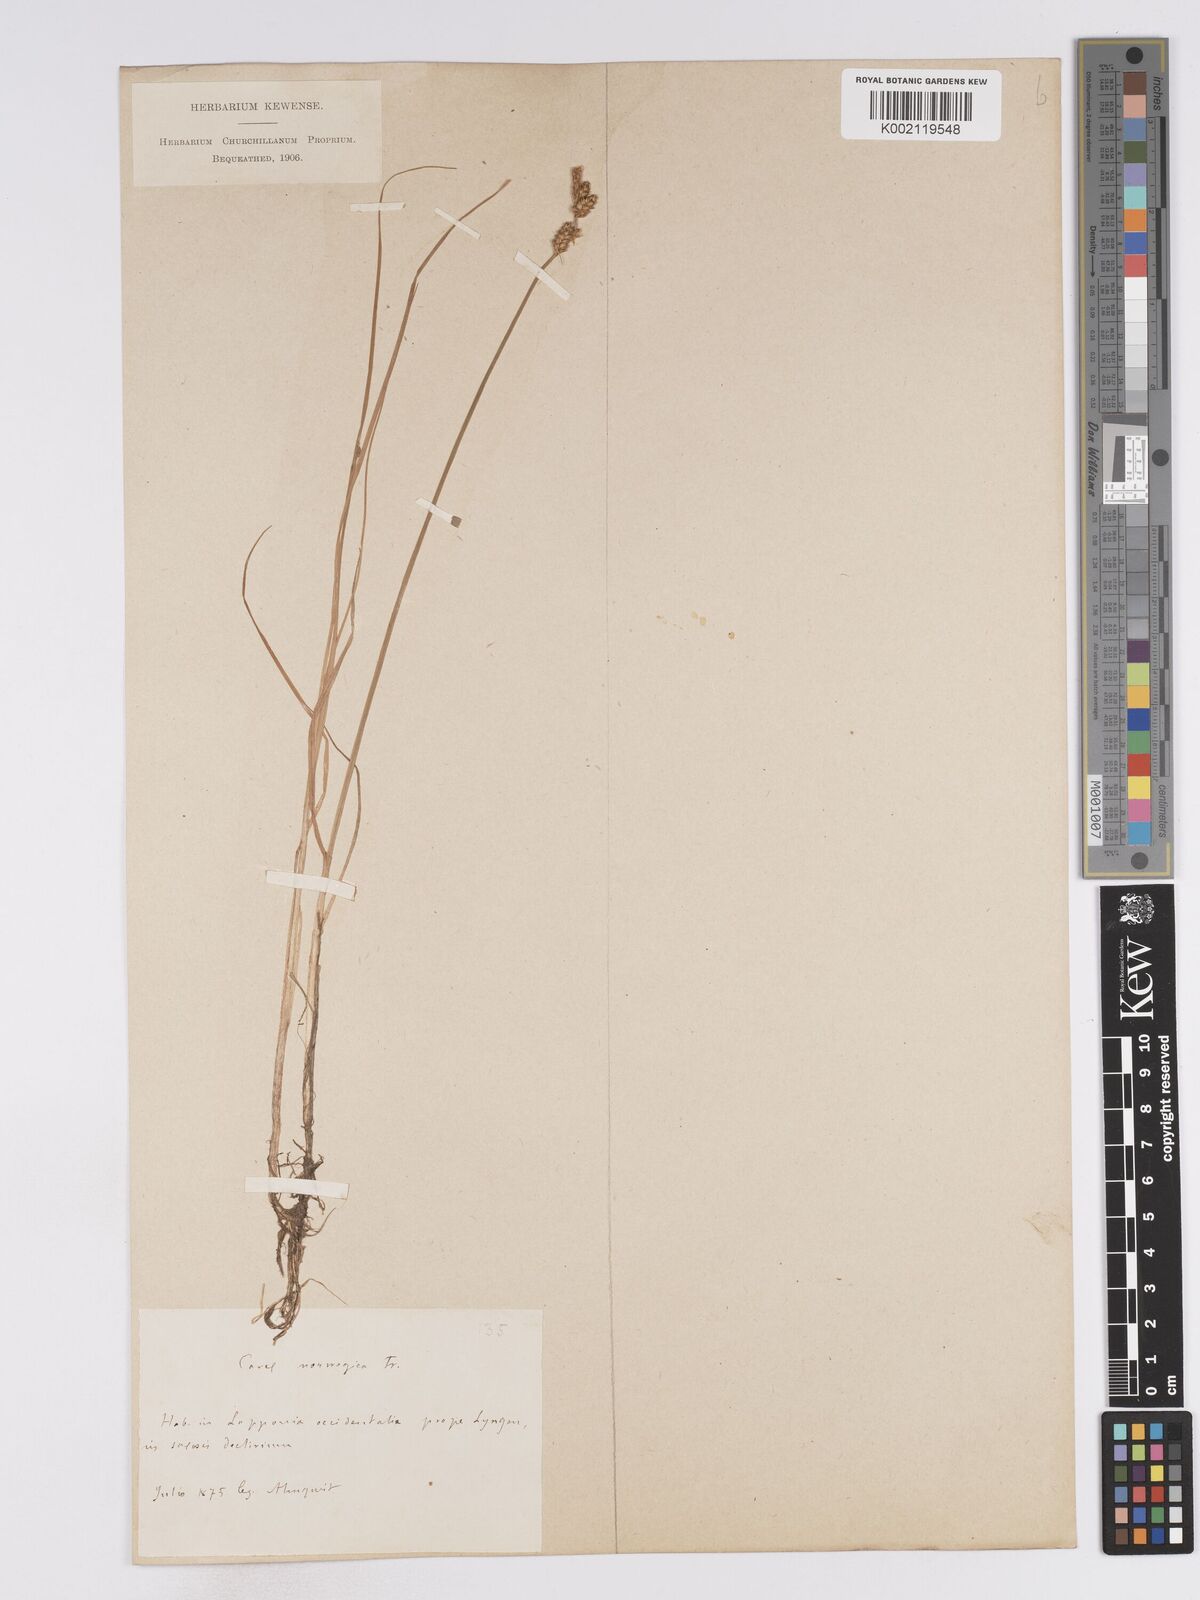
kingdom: Plantae
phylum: Tracheophyta
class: Liliopsida
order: Poales
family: Cyperaceae
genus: Carex
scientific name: Carex mackenziei
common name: Mackenzie's sedge
